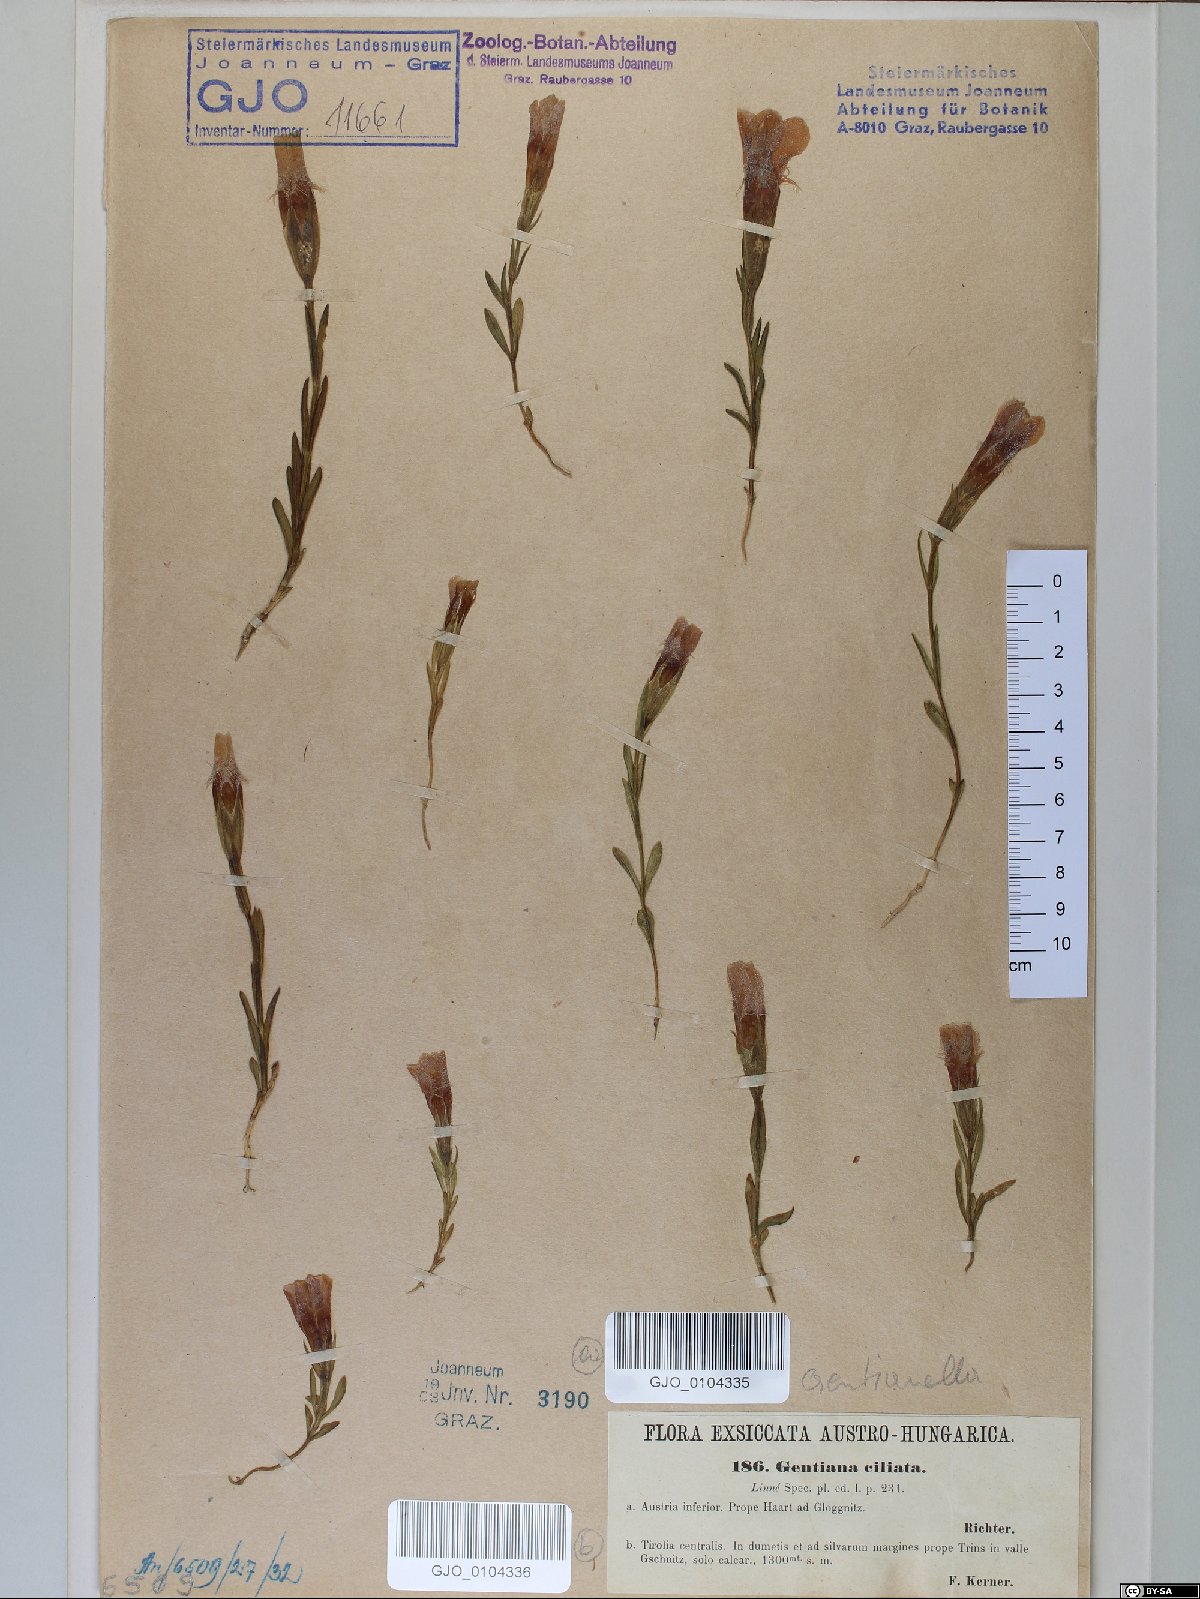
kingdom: Plantae
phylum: Tracheophyta
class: Magnoliopsida
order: Gentianales
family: Gentianaceae
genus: Gentianopsis
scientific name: Gentianopsis ciliata
